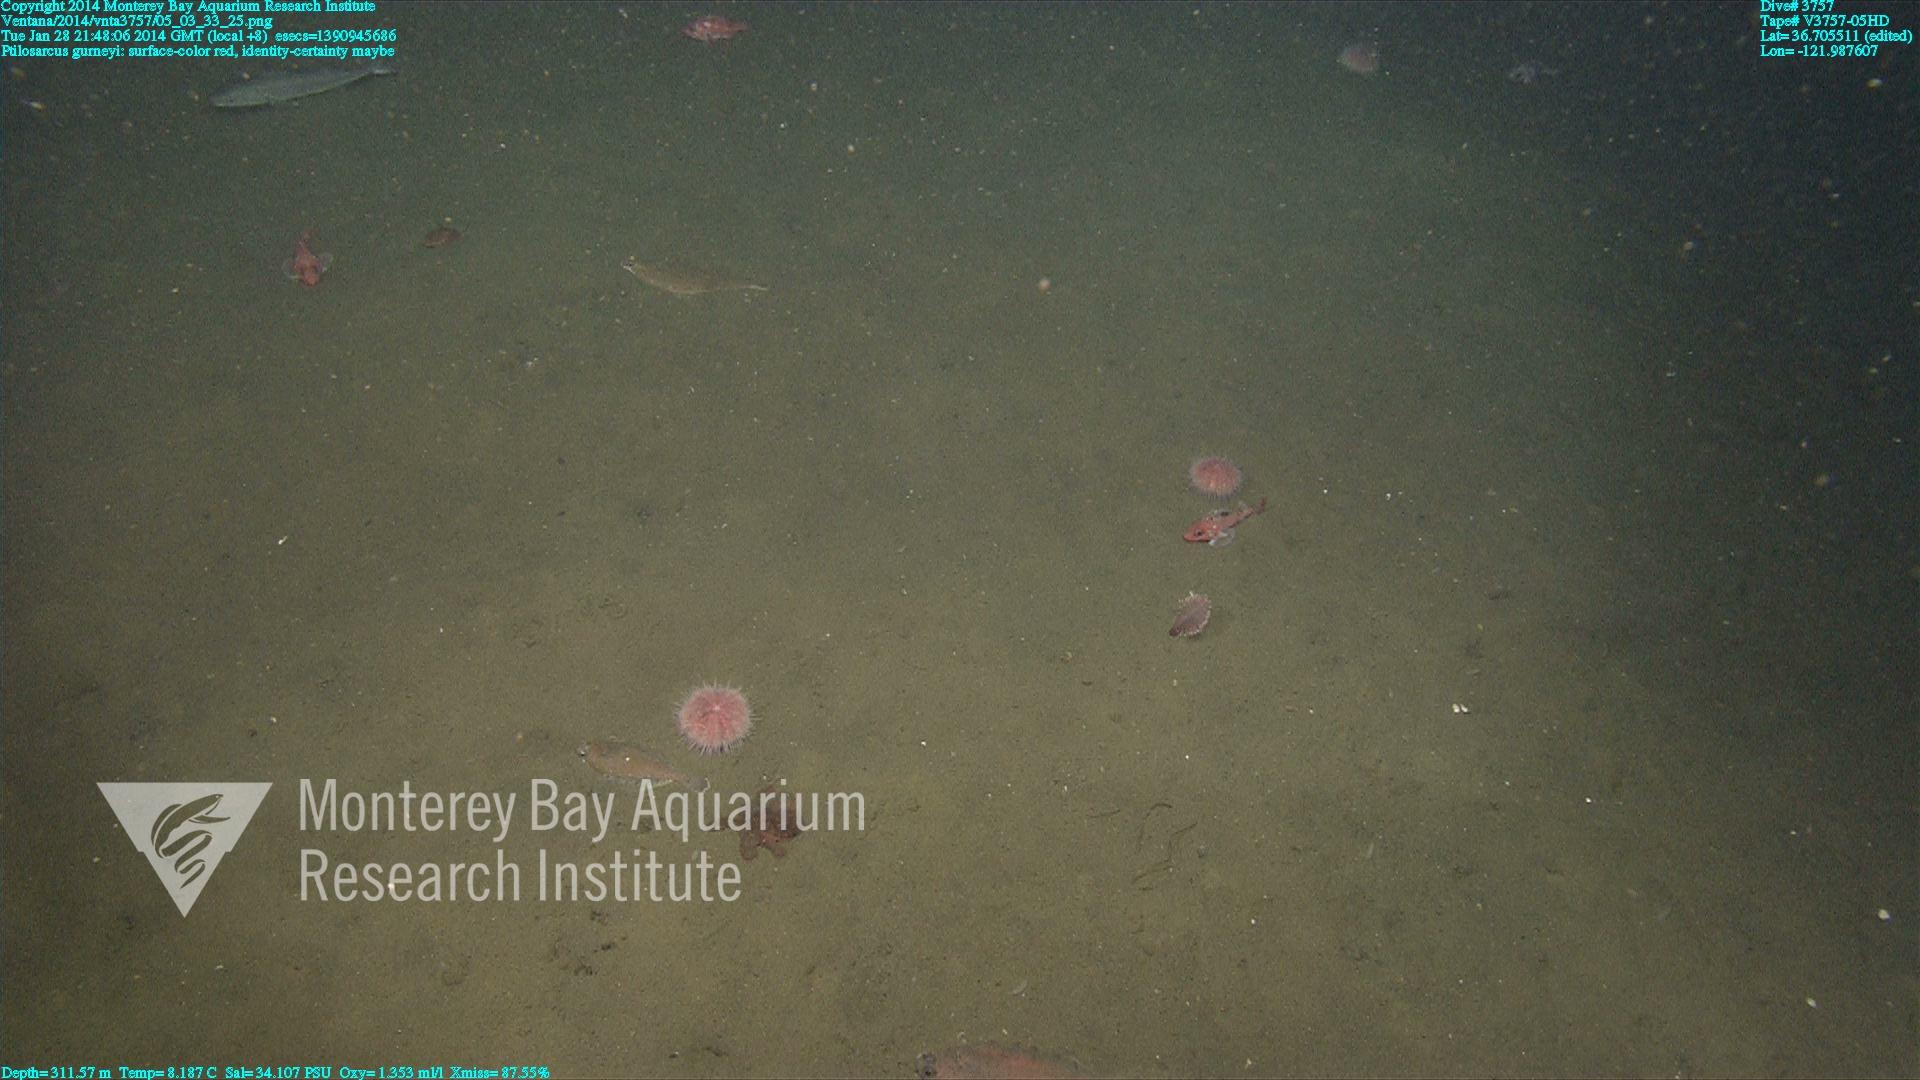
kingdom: Animalia
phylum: Cnidaria
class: Anthozoa
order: Scleralcyonacea
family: Pennatulidae
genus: Ptilosarcus
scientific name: Ptilosarcus gurneyi
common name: Gurney's sea pen
